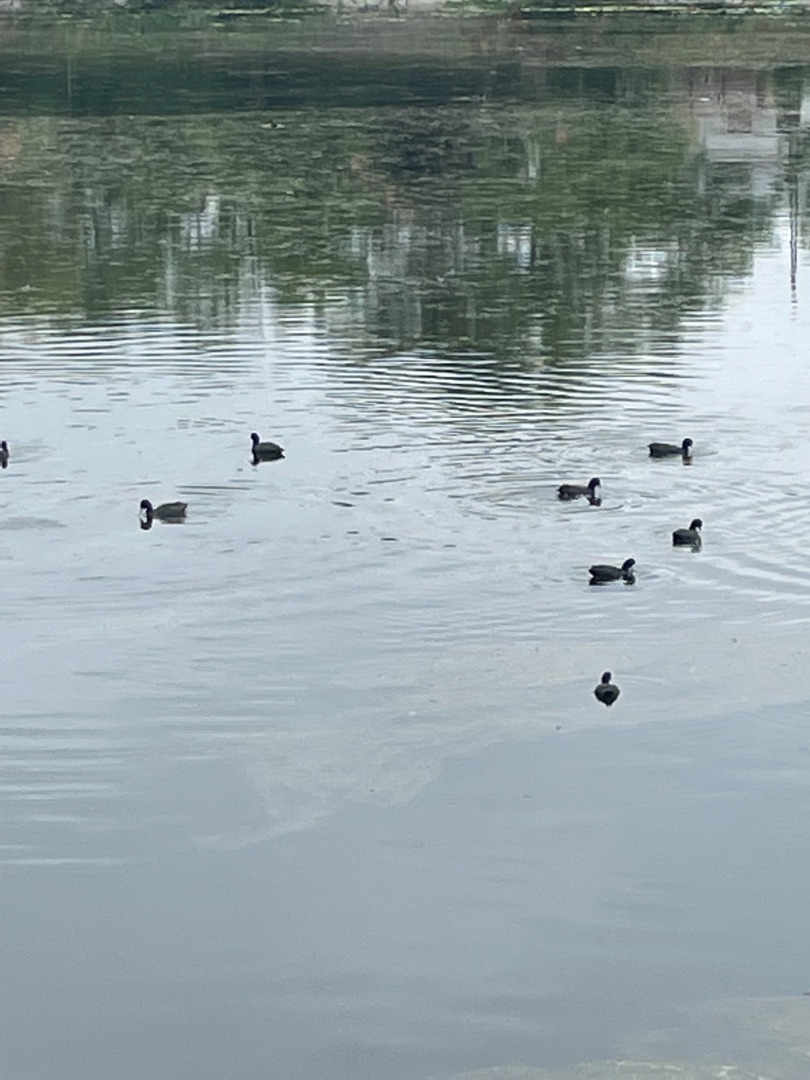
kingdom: Animalia
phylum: Chordata
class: Aves
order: Gruiformes
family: Rallidae
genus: Fulica
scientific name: Fulica atra
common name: Blishøne
